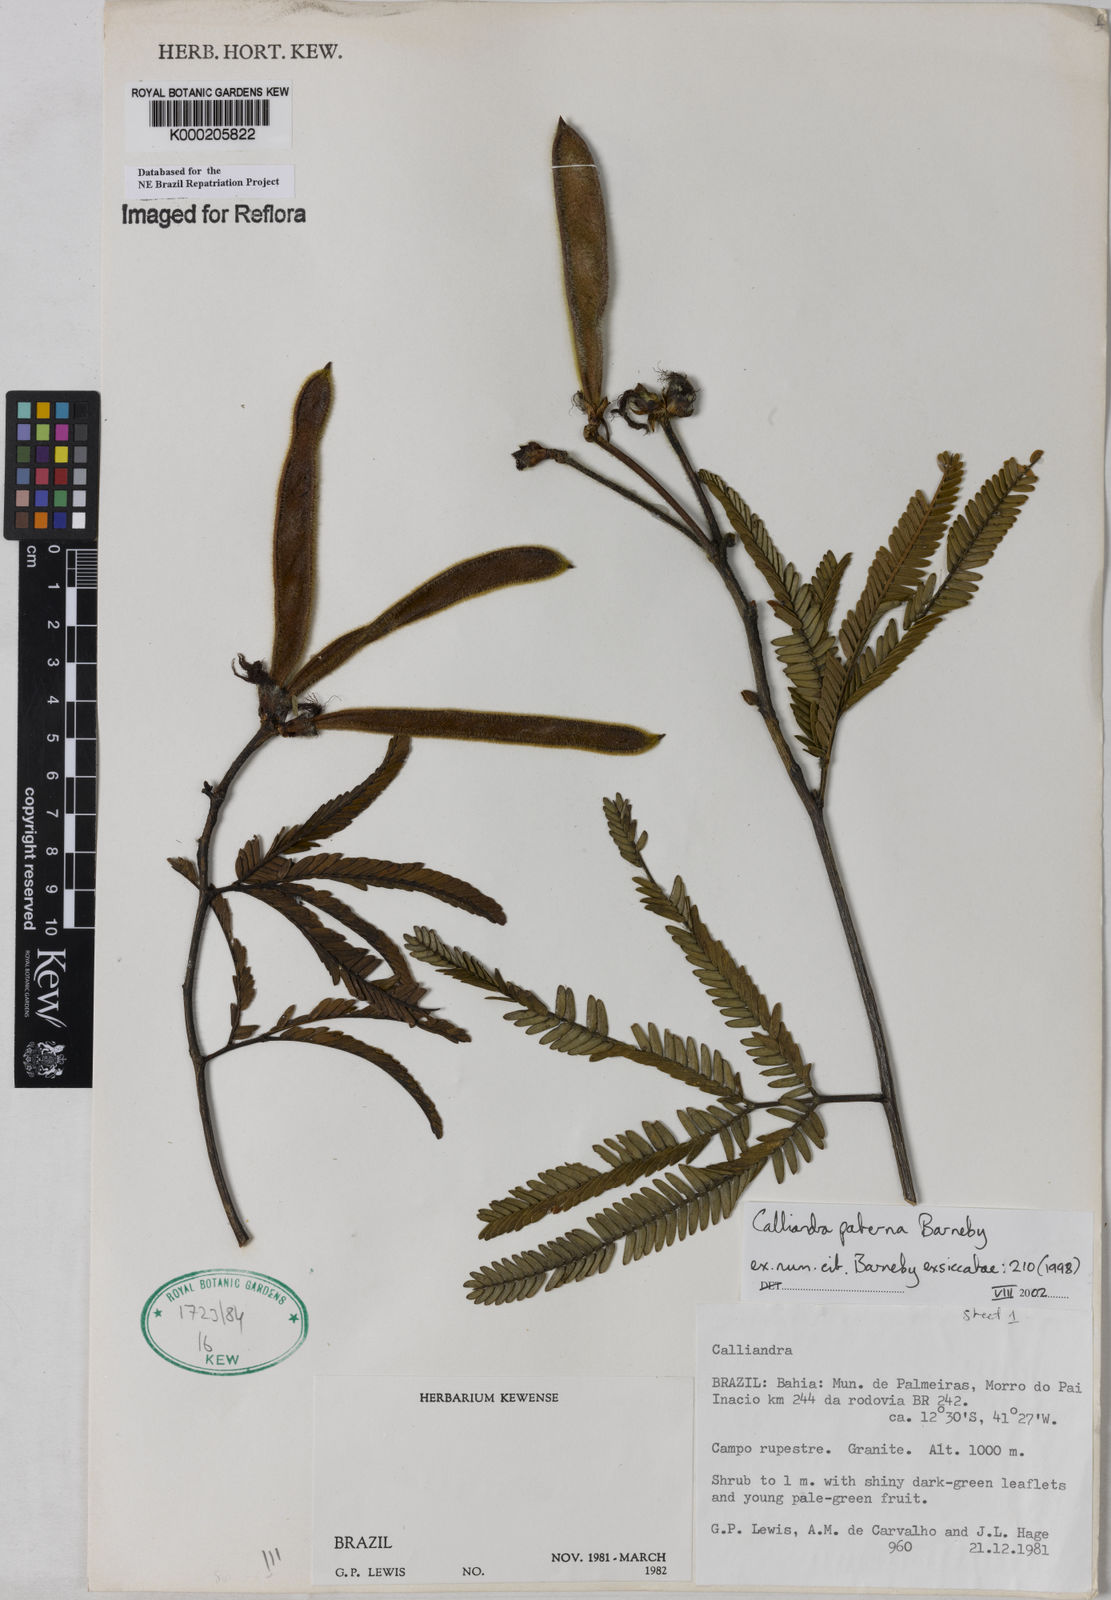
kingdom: Plantae
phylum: Tracheophyta
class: Magnoliopsida
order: Fabales
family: Fabaceae
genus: Calliandra
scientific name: Calliandra paterna
